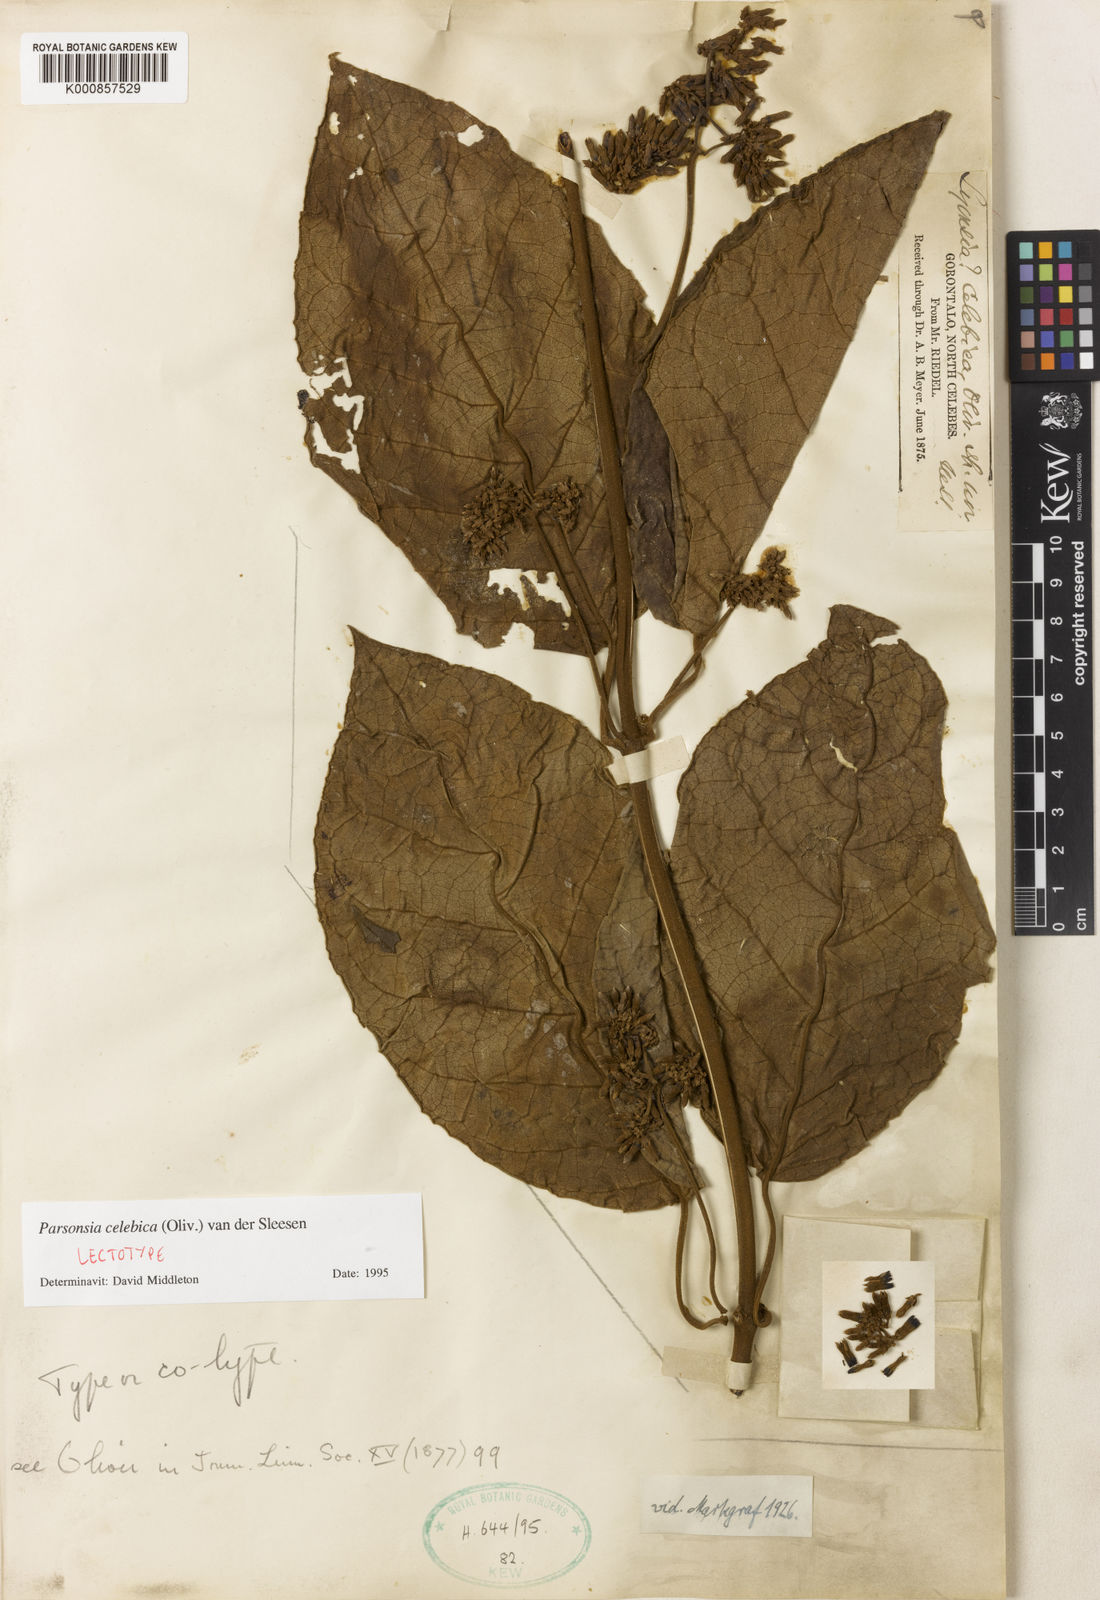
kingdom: Plantae
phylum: Tracheophyta
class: Magnoliopsida
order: Gentianales
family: Apocynaceae
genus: Parsonsia
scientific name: Parsonsia celebica
